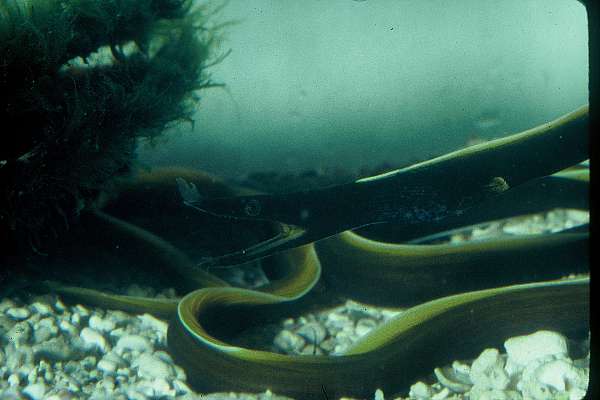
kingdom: Animalia
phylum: Chordata
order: Anguilliformes
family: Muraenidae
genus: Rhinomuraena
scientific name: Rhinomuraena quaesita
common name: Ribbon eel
